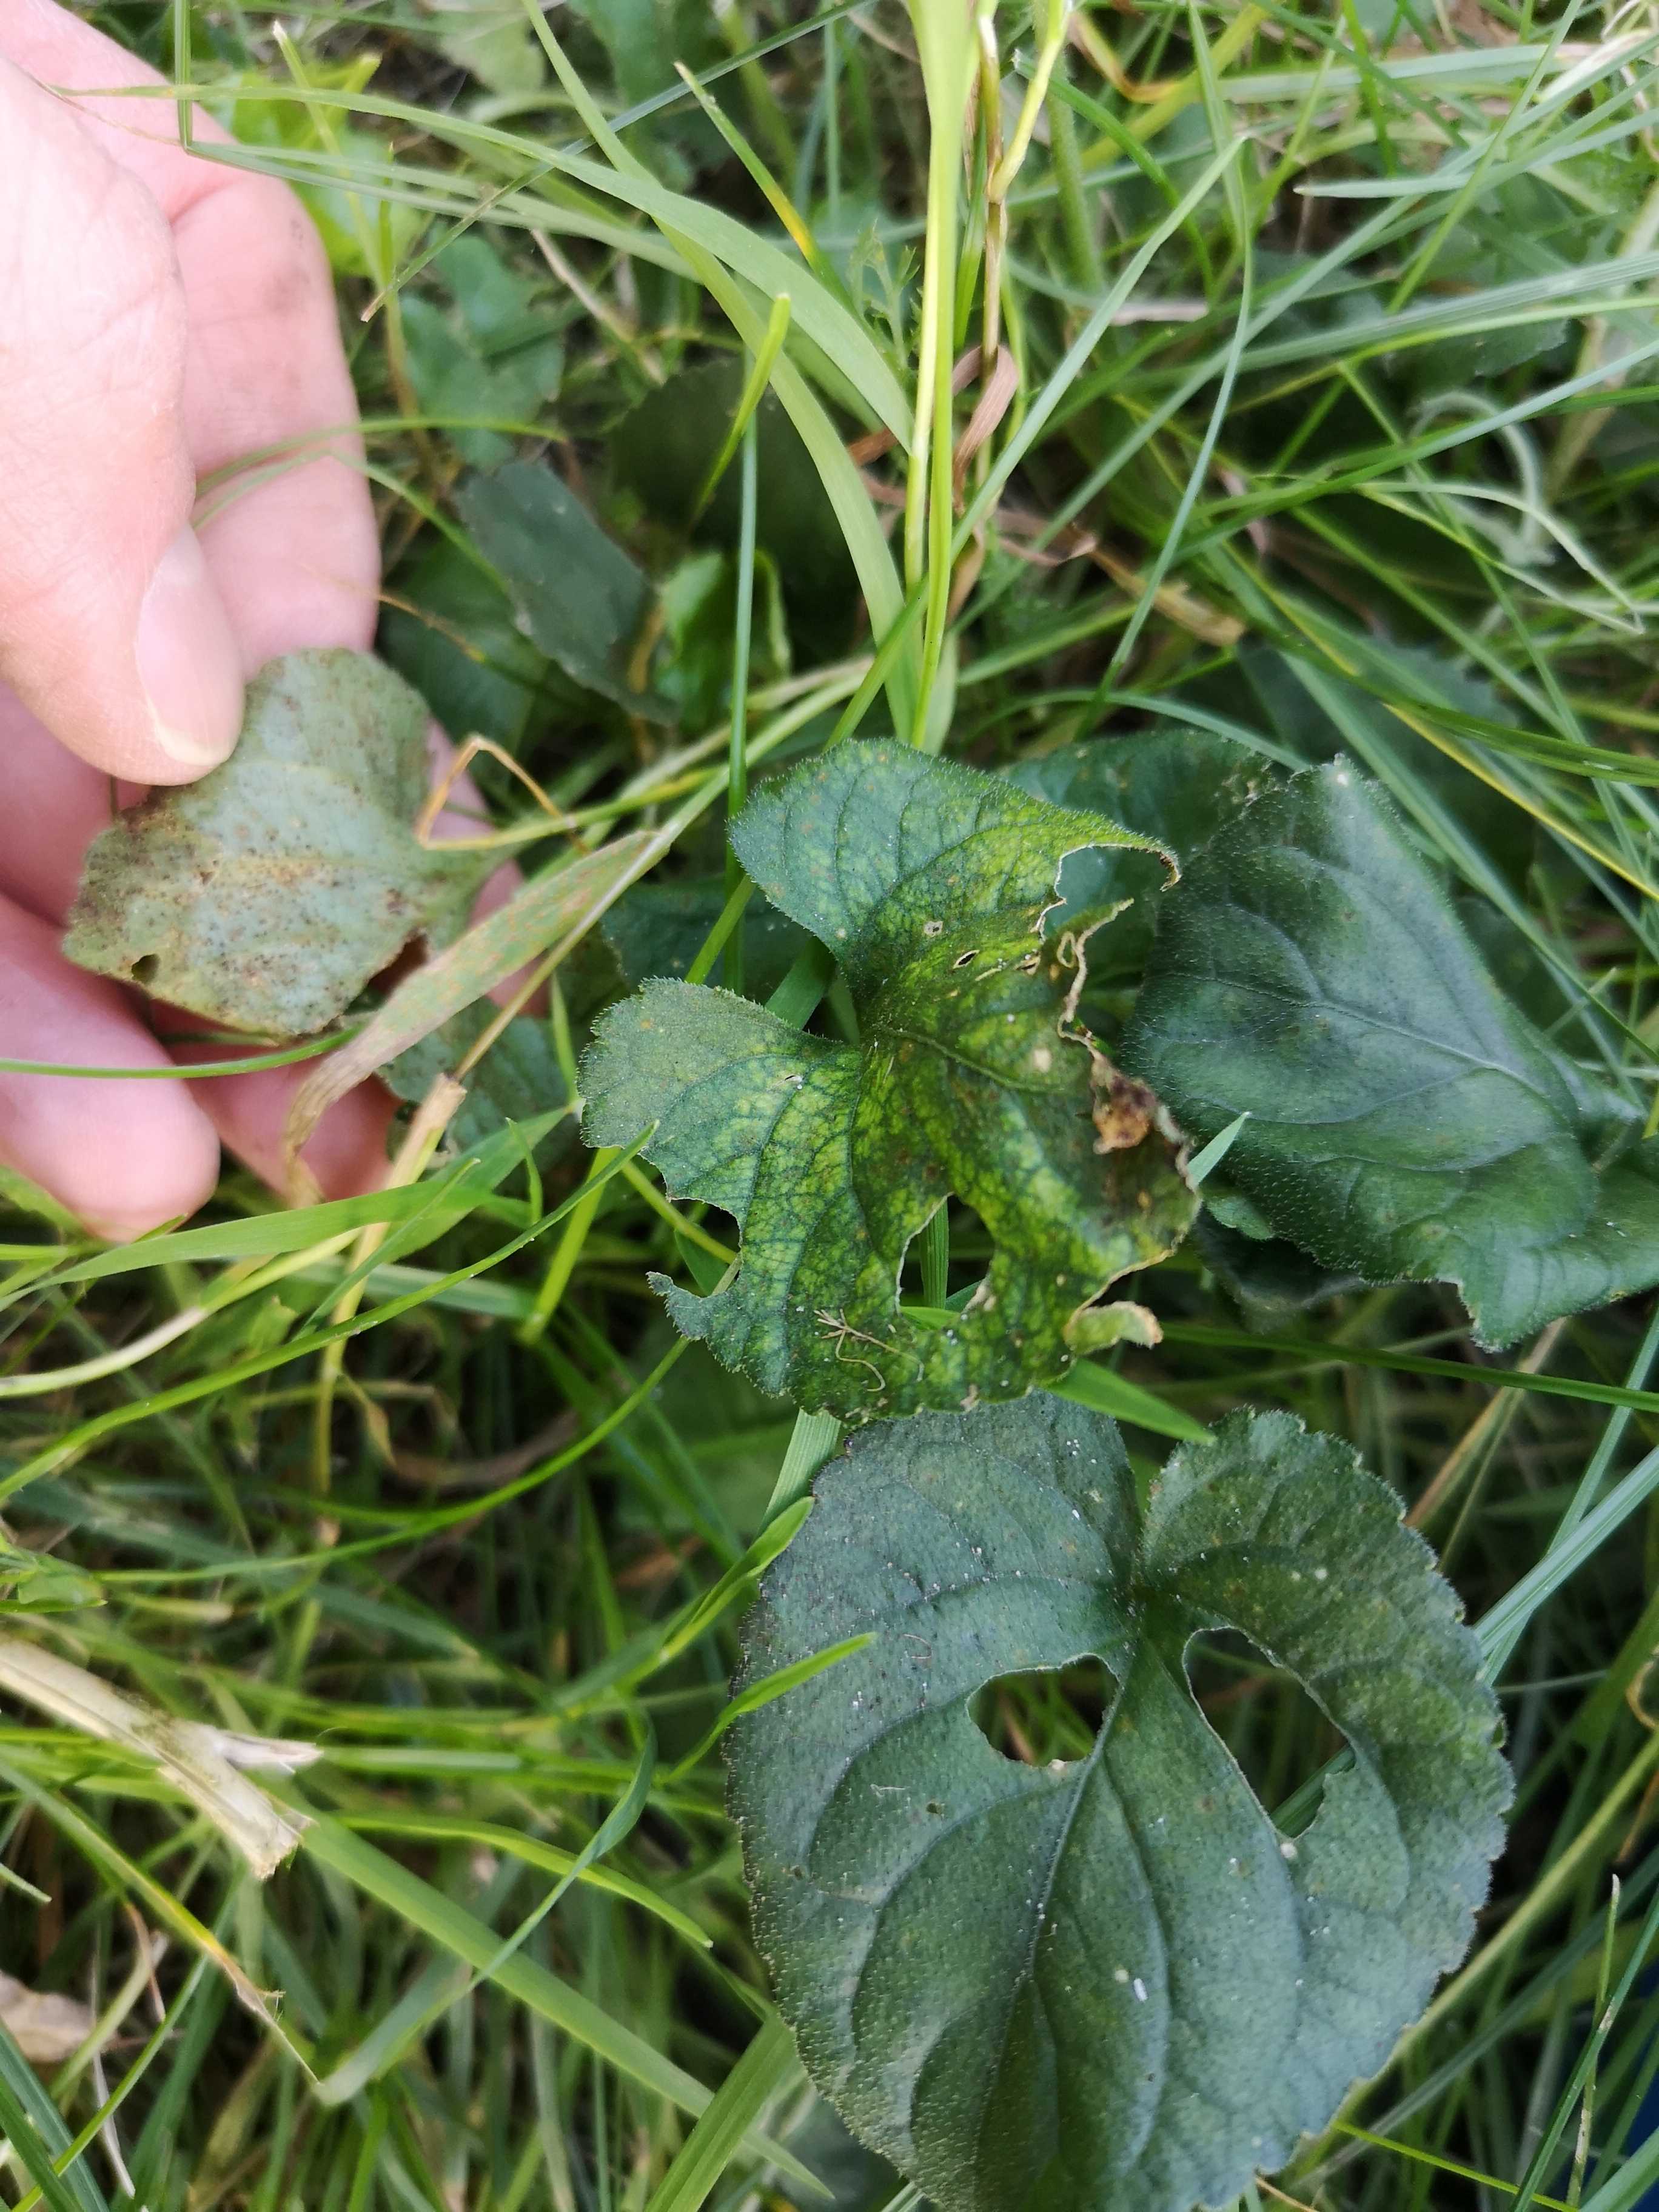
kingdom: Fungi
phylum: Basidiomycota
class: Pucciniomycetes
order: Pucciniales
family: Pucciniaceae
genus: Puccinia
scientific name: Puccinia violae
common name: viol-tvecellerust
